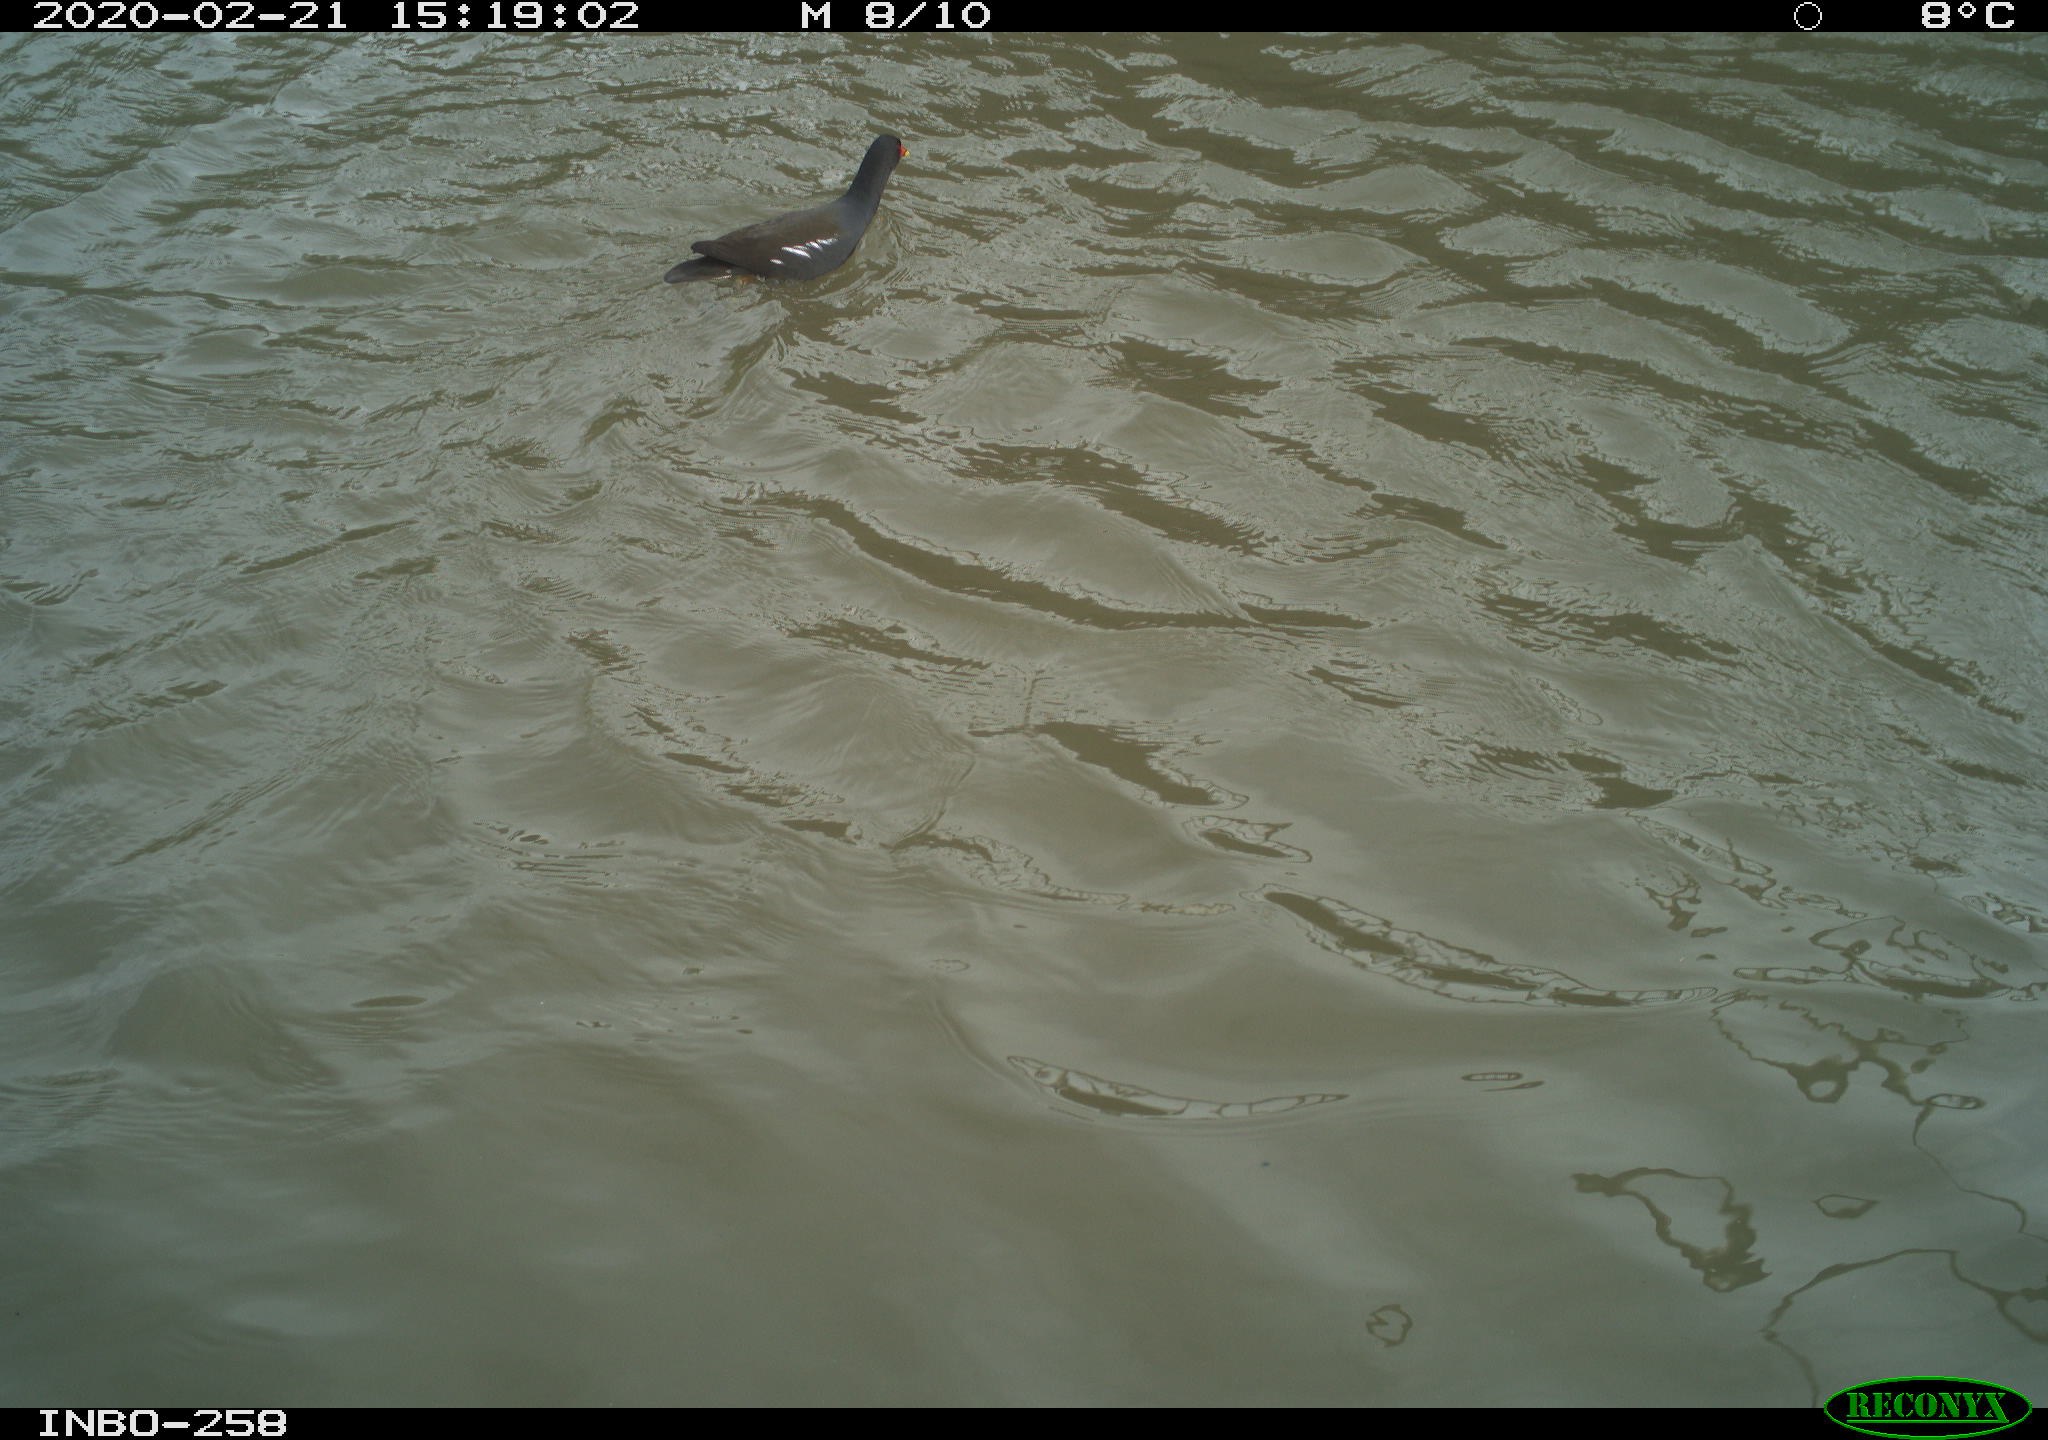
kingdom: Animalia
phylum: Chordata
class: Aves
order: Gruiformes
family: Rallidae
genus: Gallinula
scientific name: Gallinula chloropus
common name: Common moorhen
